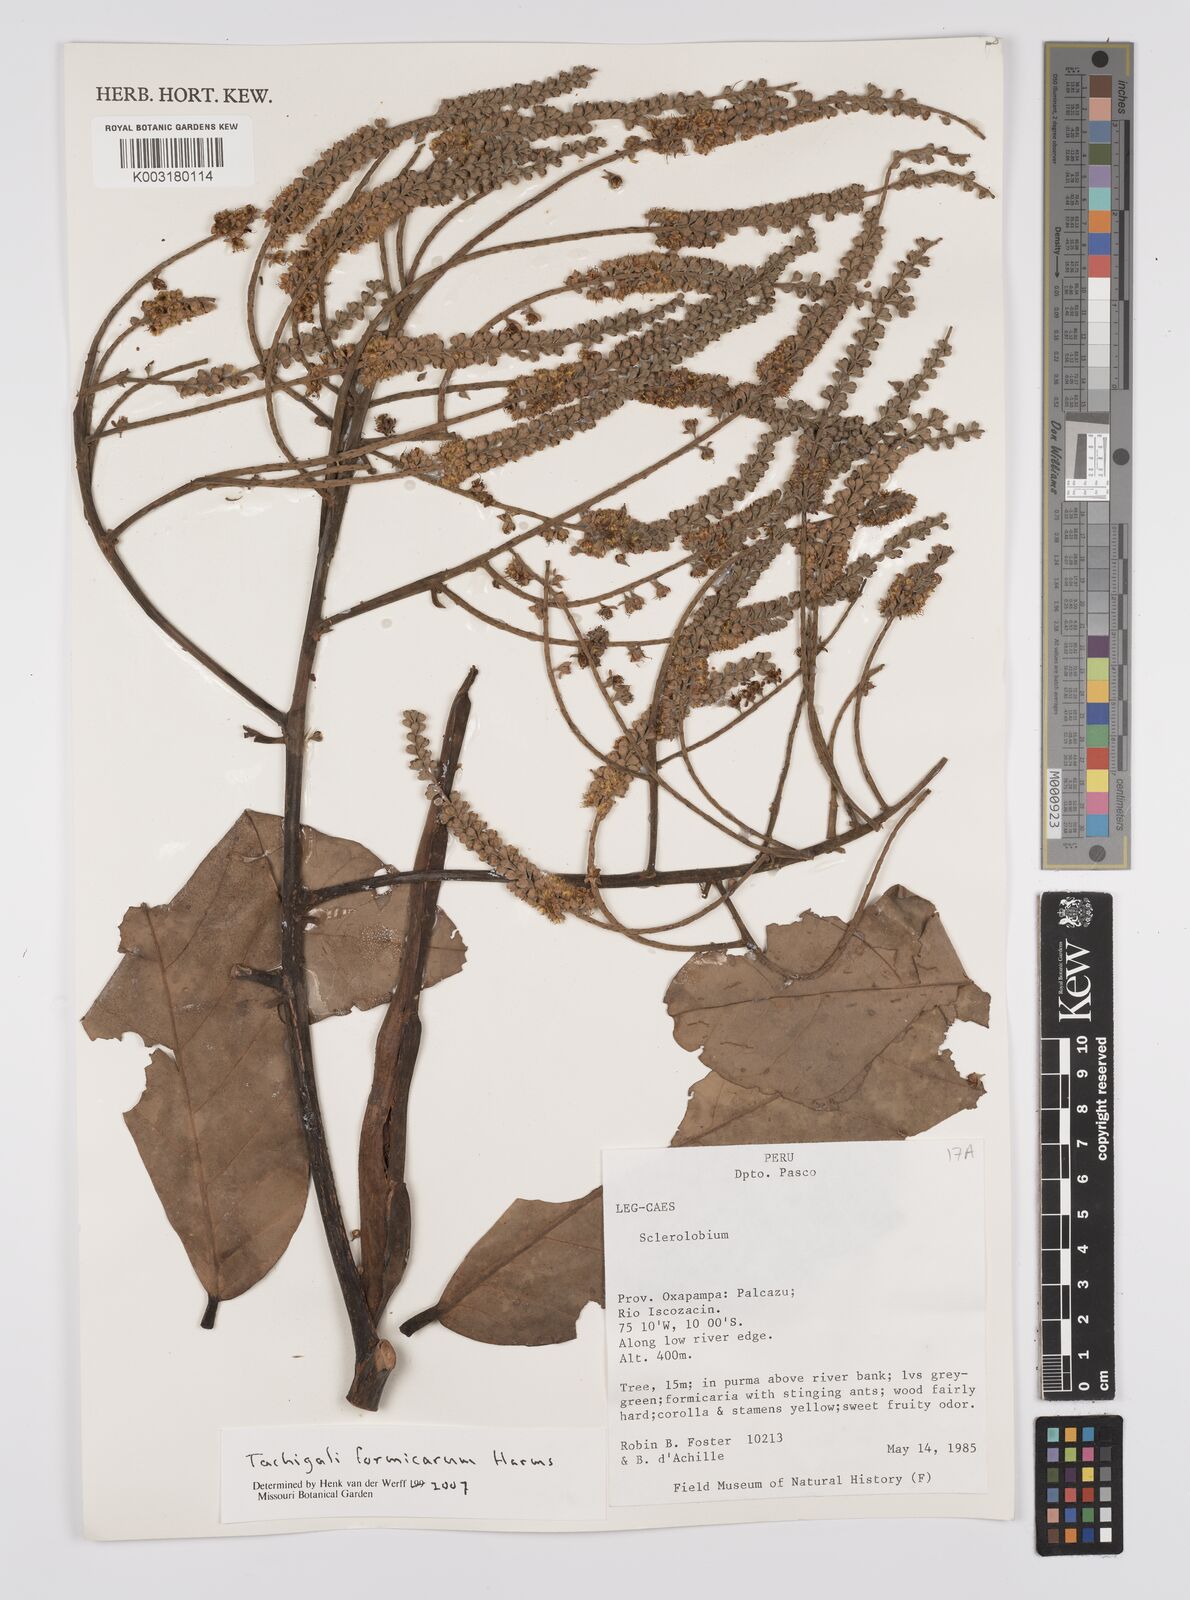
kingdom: Plantae
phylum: Tracheophyta
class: Magnoliopsida
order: Fabales
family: Fabaceae
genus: Tachigali
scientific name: Tachigali formicarum
